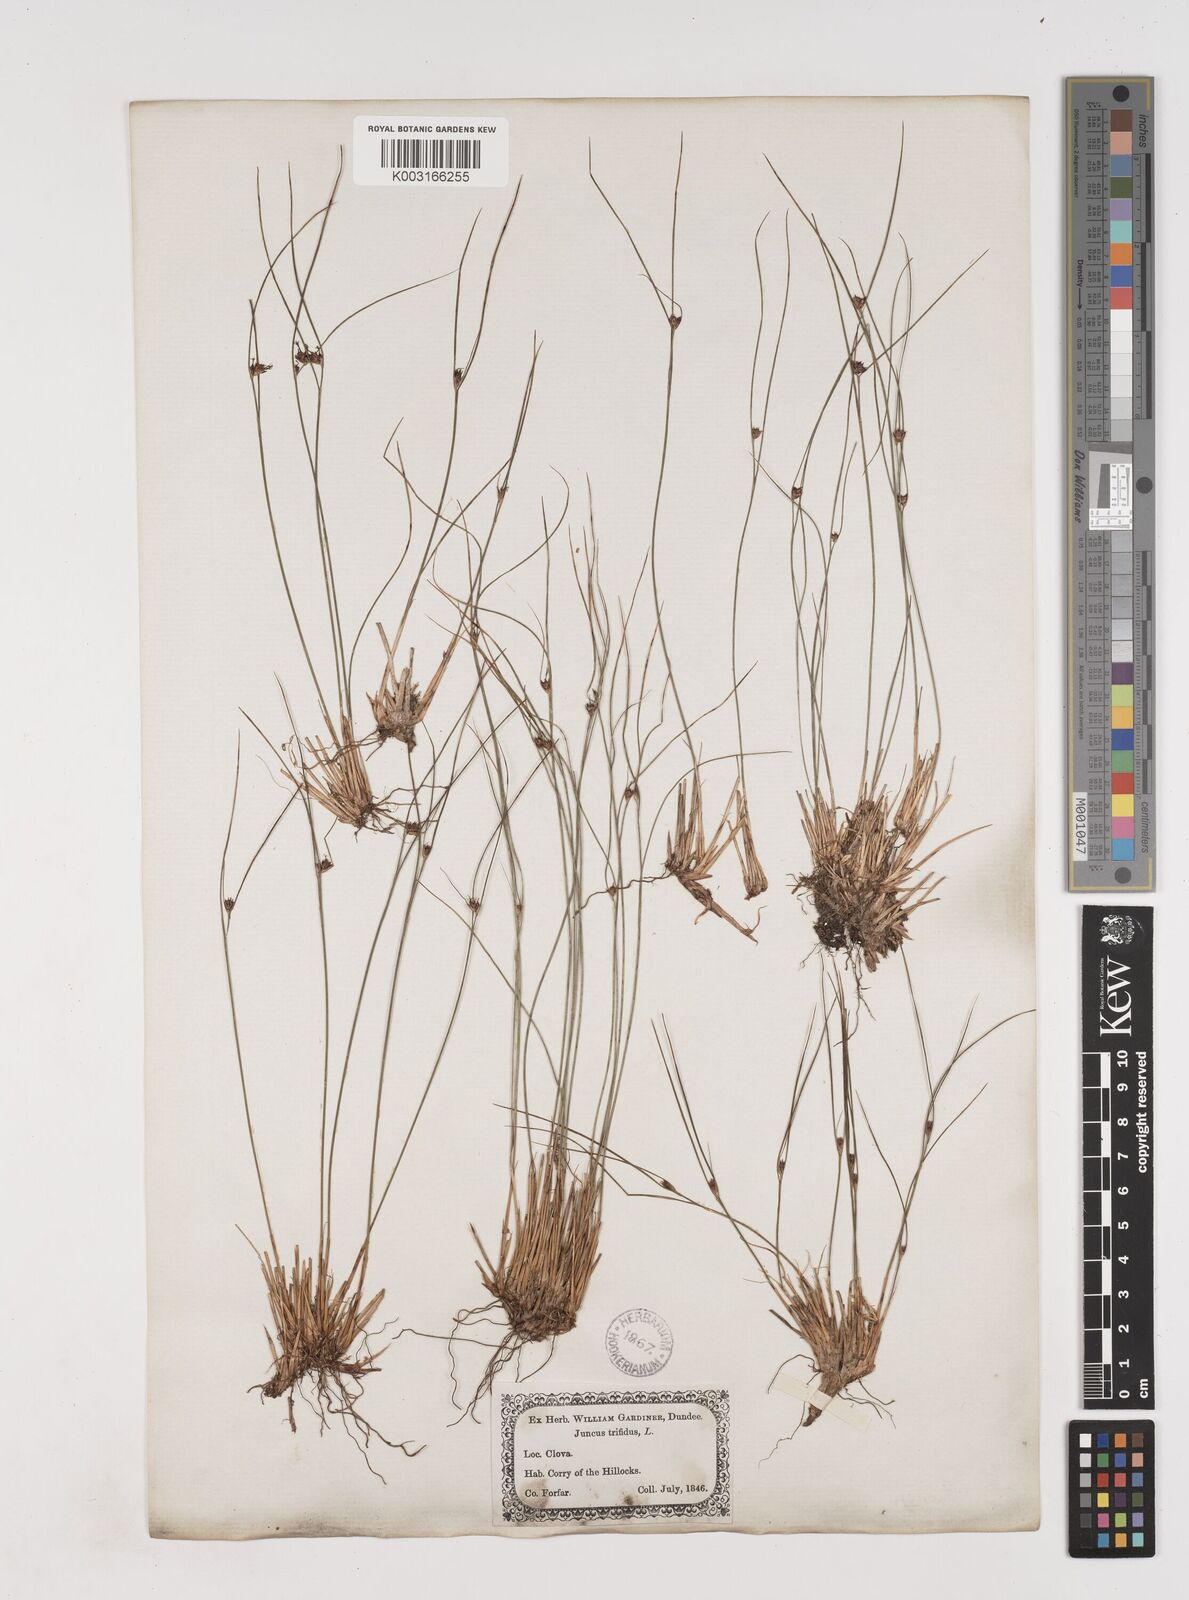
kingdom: Plantae
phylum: Tracheophyta
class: Liliopsida
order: Poales
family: Juncaceae
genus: Oreojuncus
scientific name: Oreojuncus trifidus
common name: Highland rush
